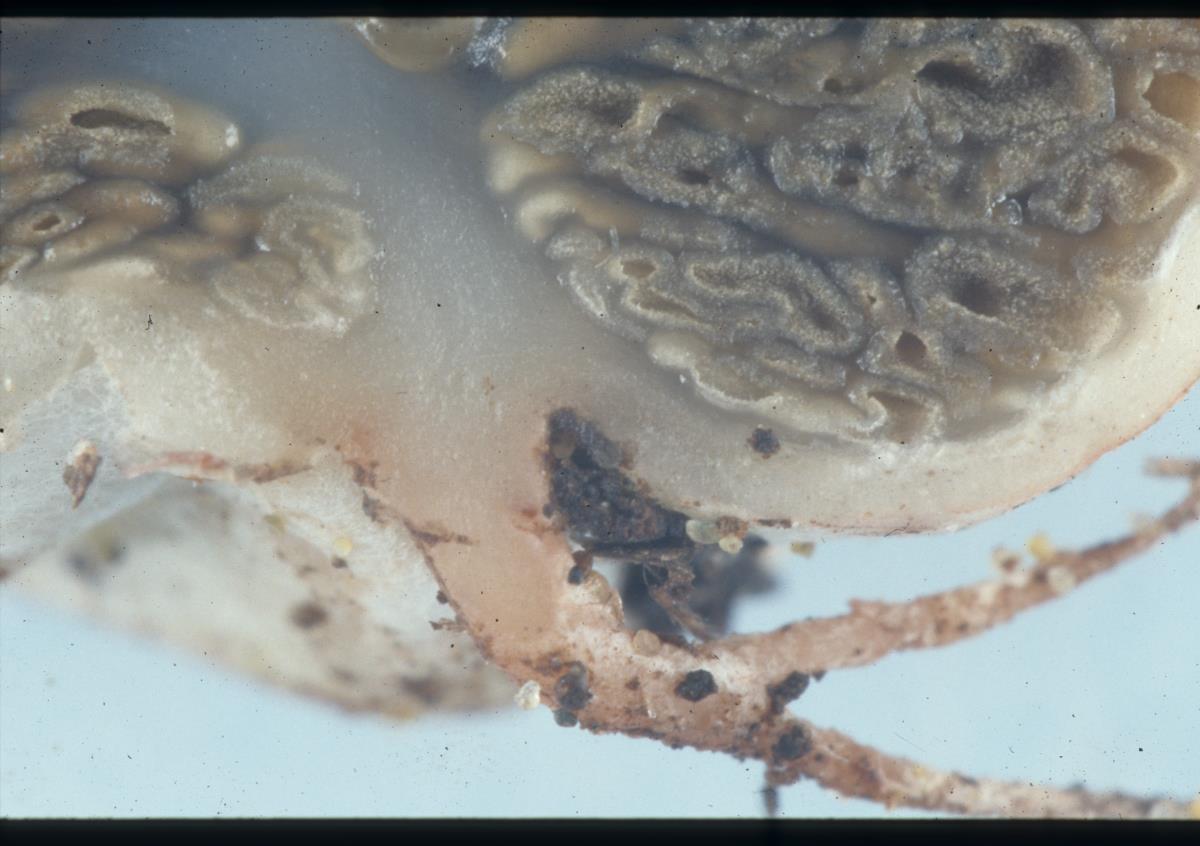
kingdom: Fungi
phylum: Basidiomycota
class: Agaricomycetes
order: Hysterangiales
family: Hysterangiaceae
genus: Hysterangium
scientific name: Hysterangium
